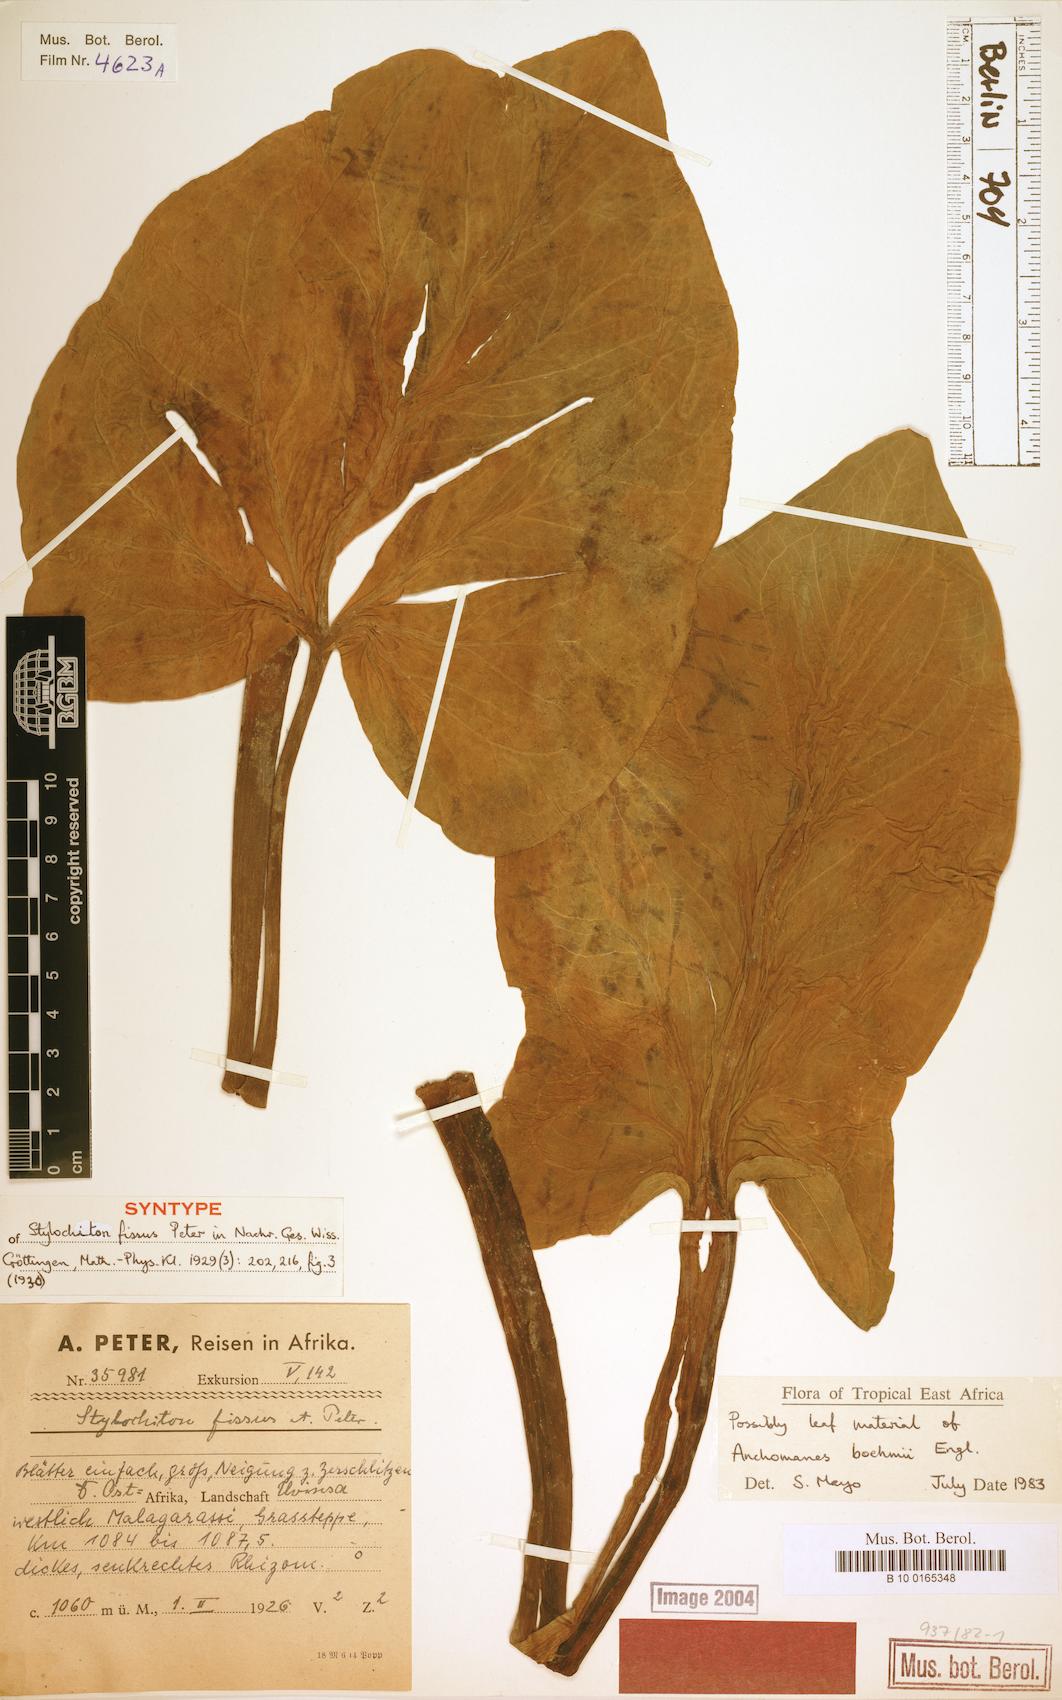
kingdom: Plantae
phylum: Tracheophyta
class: Liliopsida
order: Alismatales
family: Araceae
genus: Anchomanes
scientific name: Anchomanes boehmii
